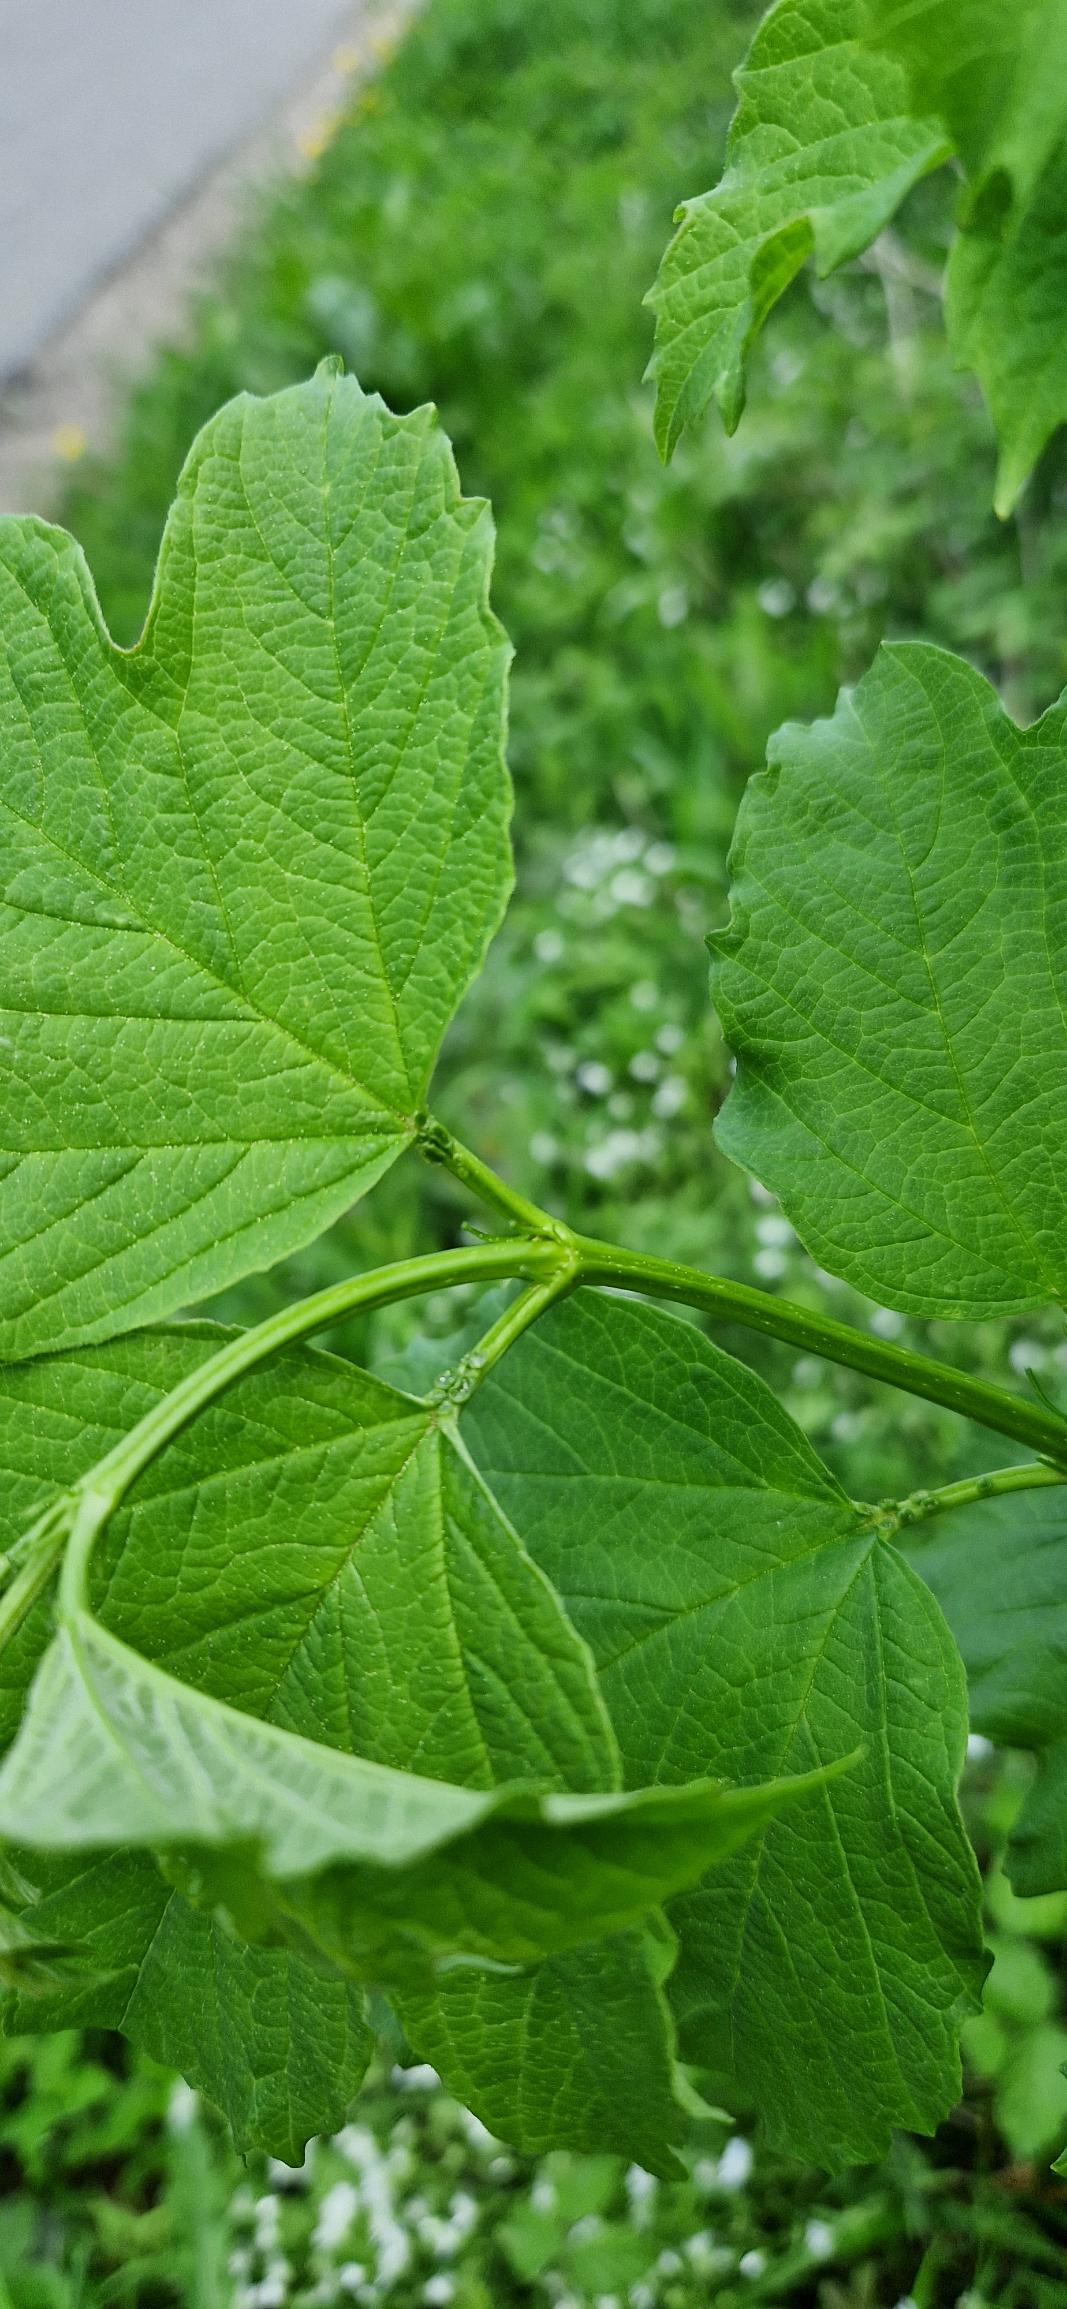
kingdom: Plantae
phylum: Tracheophyta
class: Magnoliopsida
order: Dipsacales
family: Viburnaceae
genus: Viburnum
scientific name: Viburnum opulus
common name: Kvalkved
